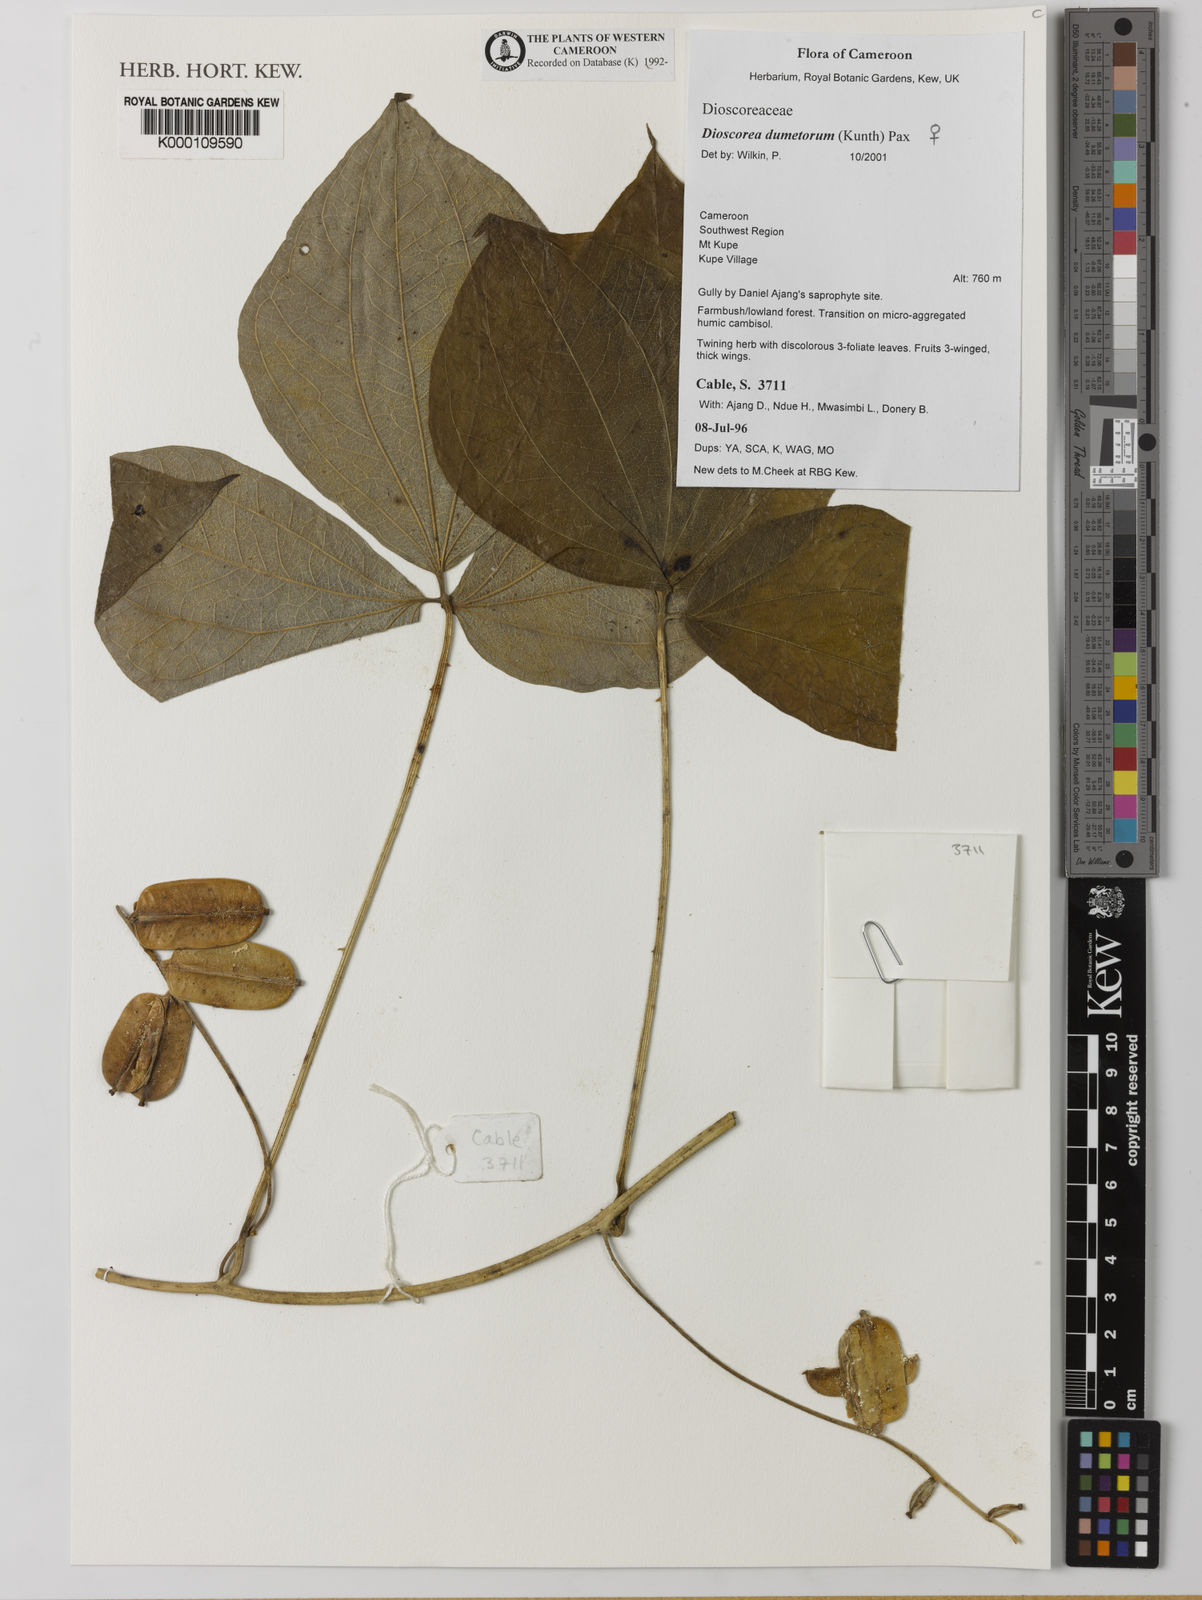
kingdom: Plantae
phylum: Tracheophyta
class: Liliopsida
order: Dioscoreales
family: Dioscoreaceae
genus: Dioscorea
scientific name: Dioscorea dumetorum
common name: African bitter yam
